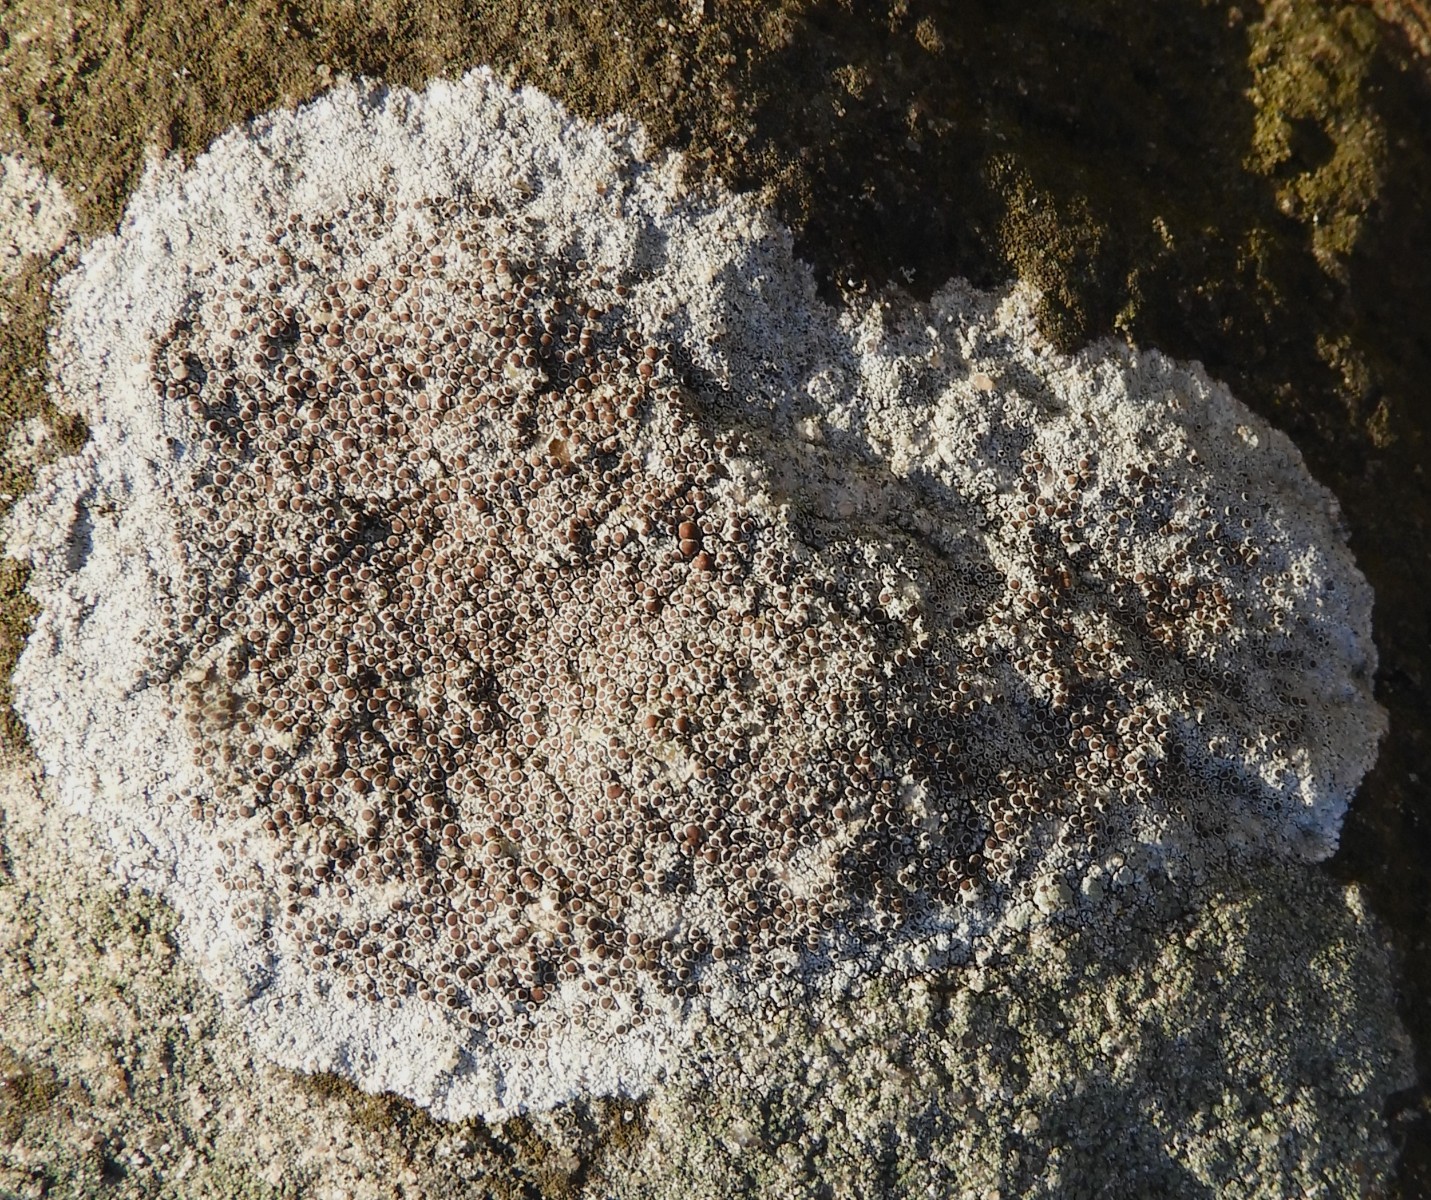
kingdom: Fungi
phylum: Ascomycota
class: Lecanoromycetes
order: Lecanorales
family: Lecanoraceae
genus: Lecanora
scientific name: Lecanora campestris
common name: mur-kantskivelav
